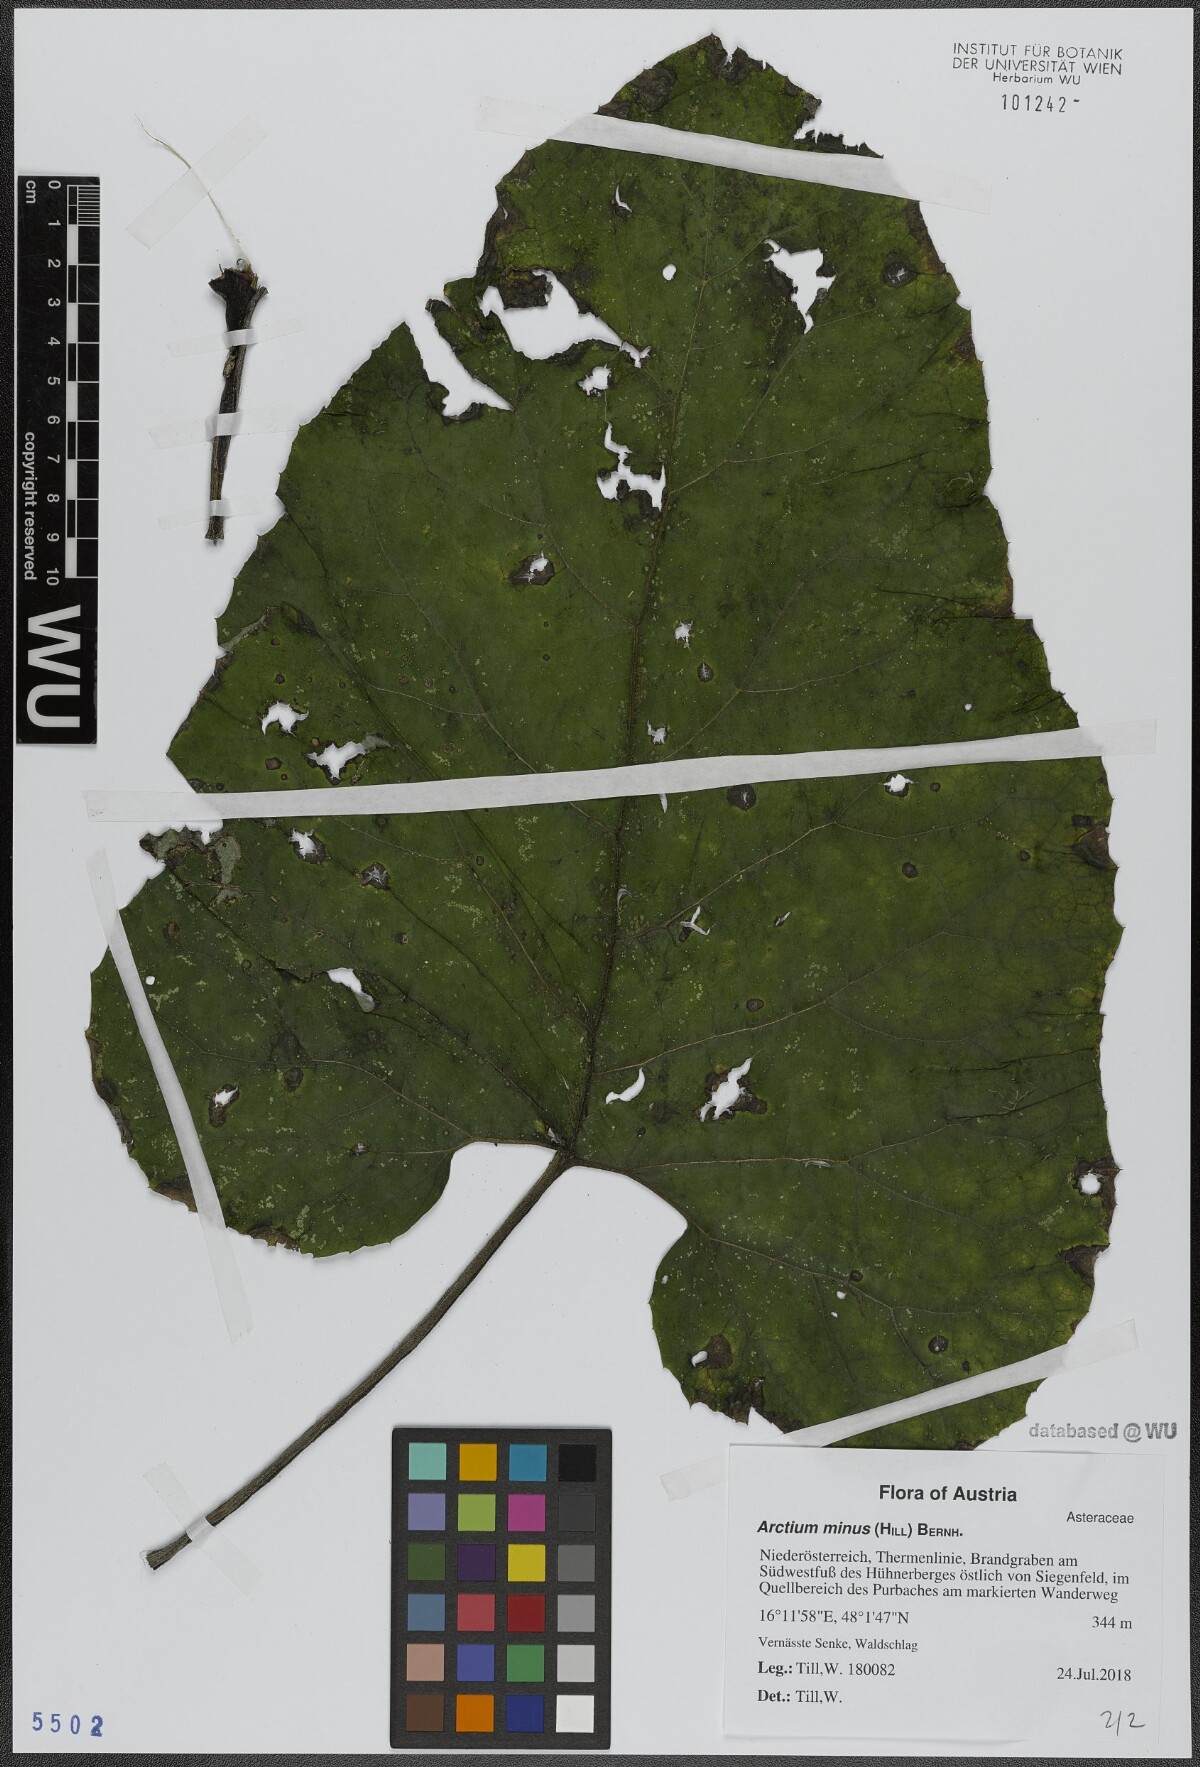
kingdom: Plantae
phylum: Tracheophyta
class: Magnoliopsida
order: Asterales
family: Asteraceae
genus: Arctium
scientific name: Arctium minus
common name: Lesser burdock
